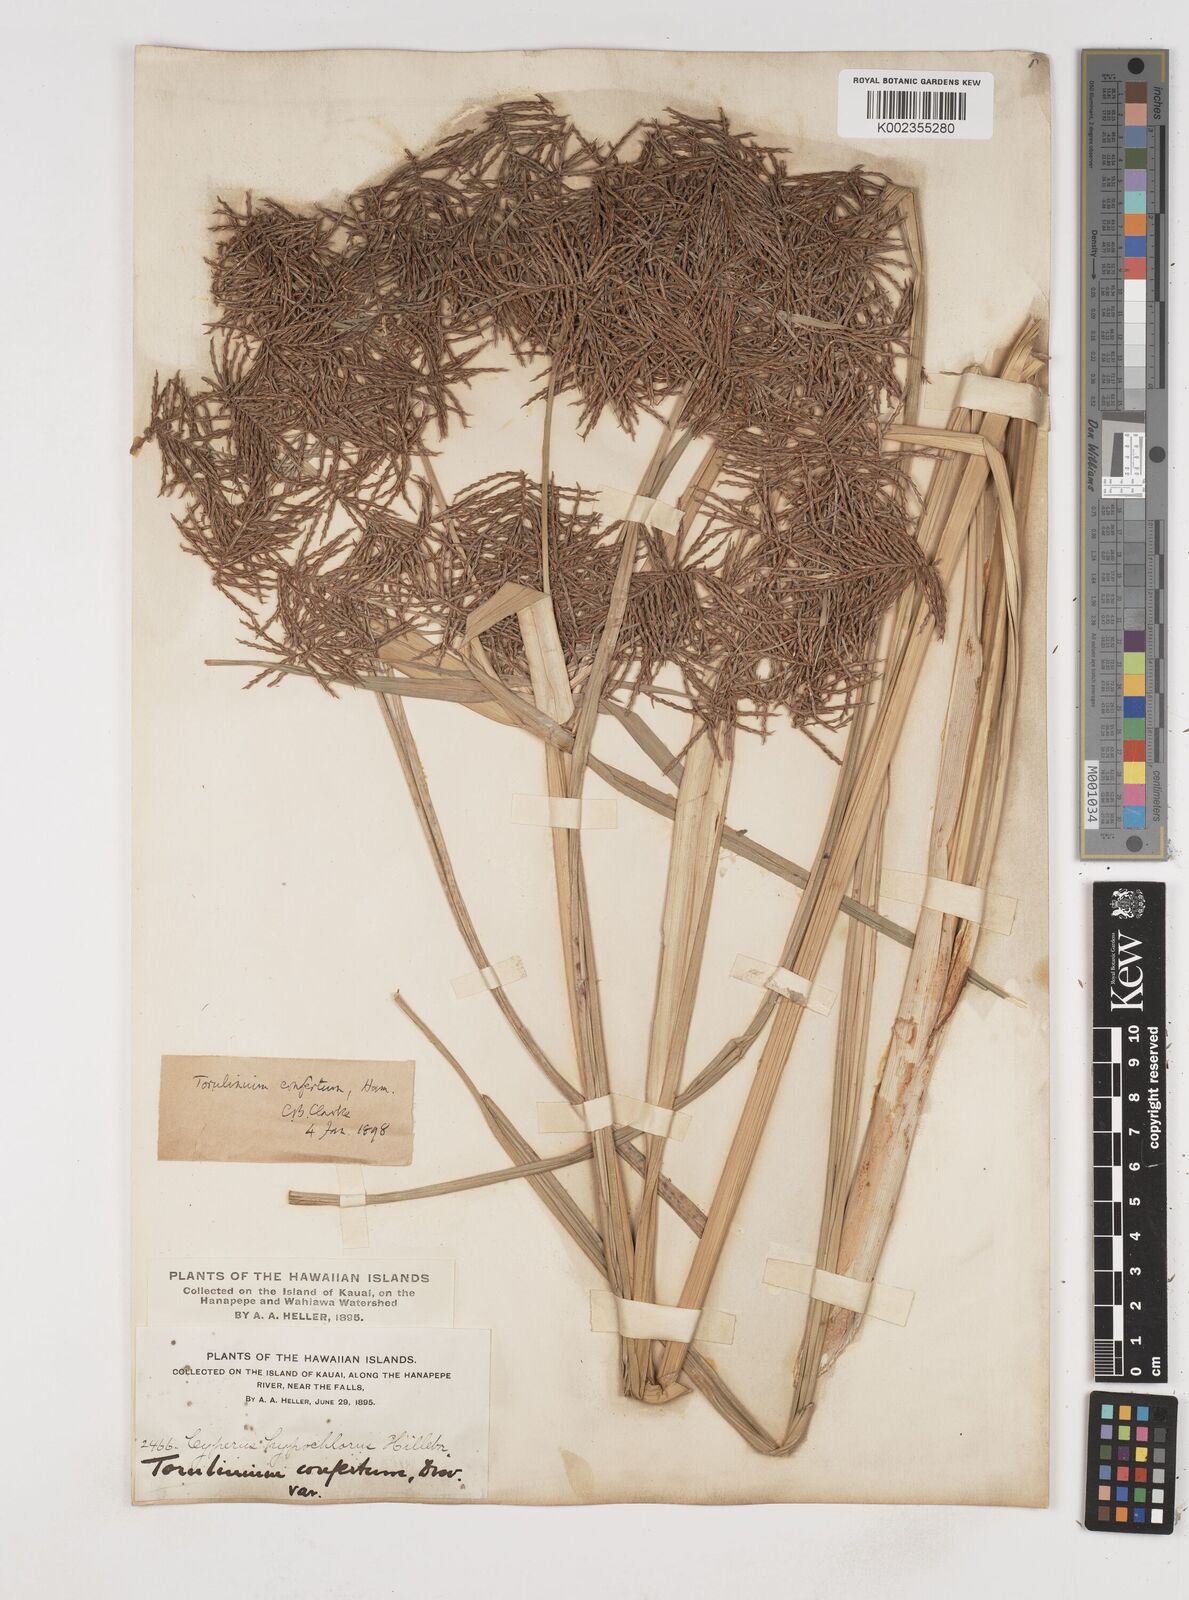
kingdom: Plantae
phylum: Tracheophyta
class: Liliopsida
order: Poales
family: Cyperaceae
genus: Cyperus
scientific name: Cyperus odoratus
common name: Fragrant flatsedge
